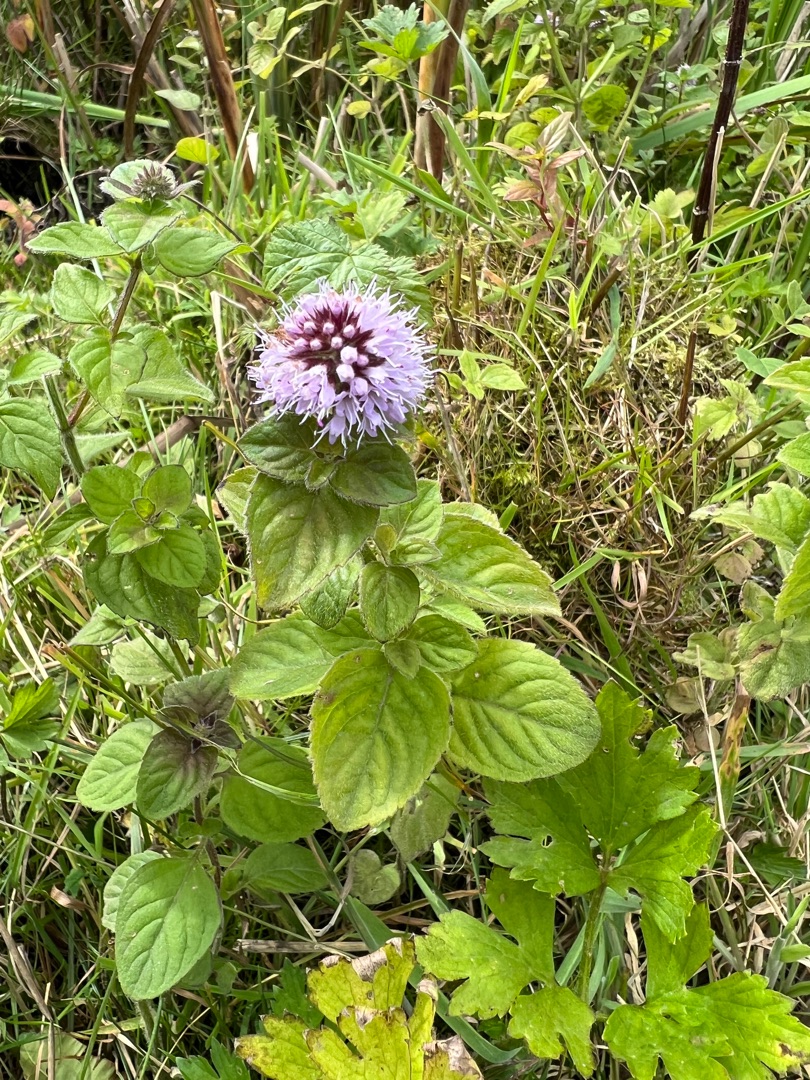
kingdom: Plantae
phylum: Tracheophyta
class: Magnoliopsida
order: Lamiales
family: Lamiaceae
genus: Mentha
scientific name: Mentha aquatica
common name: Vand-mynte
